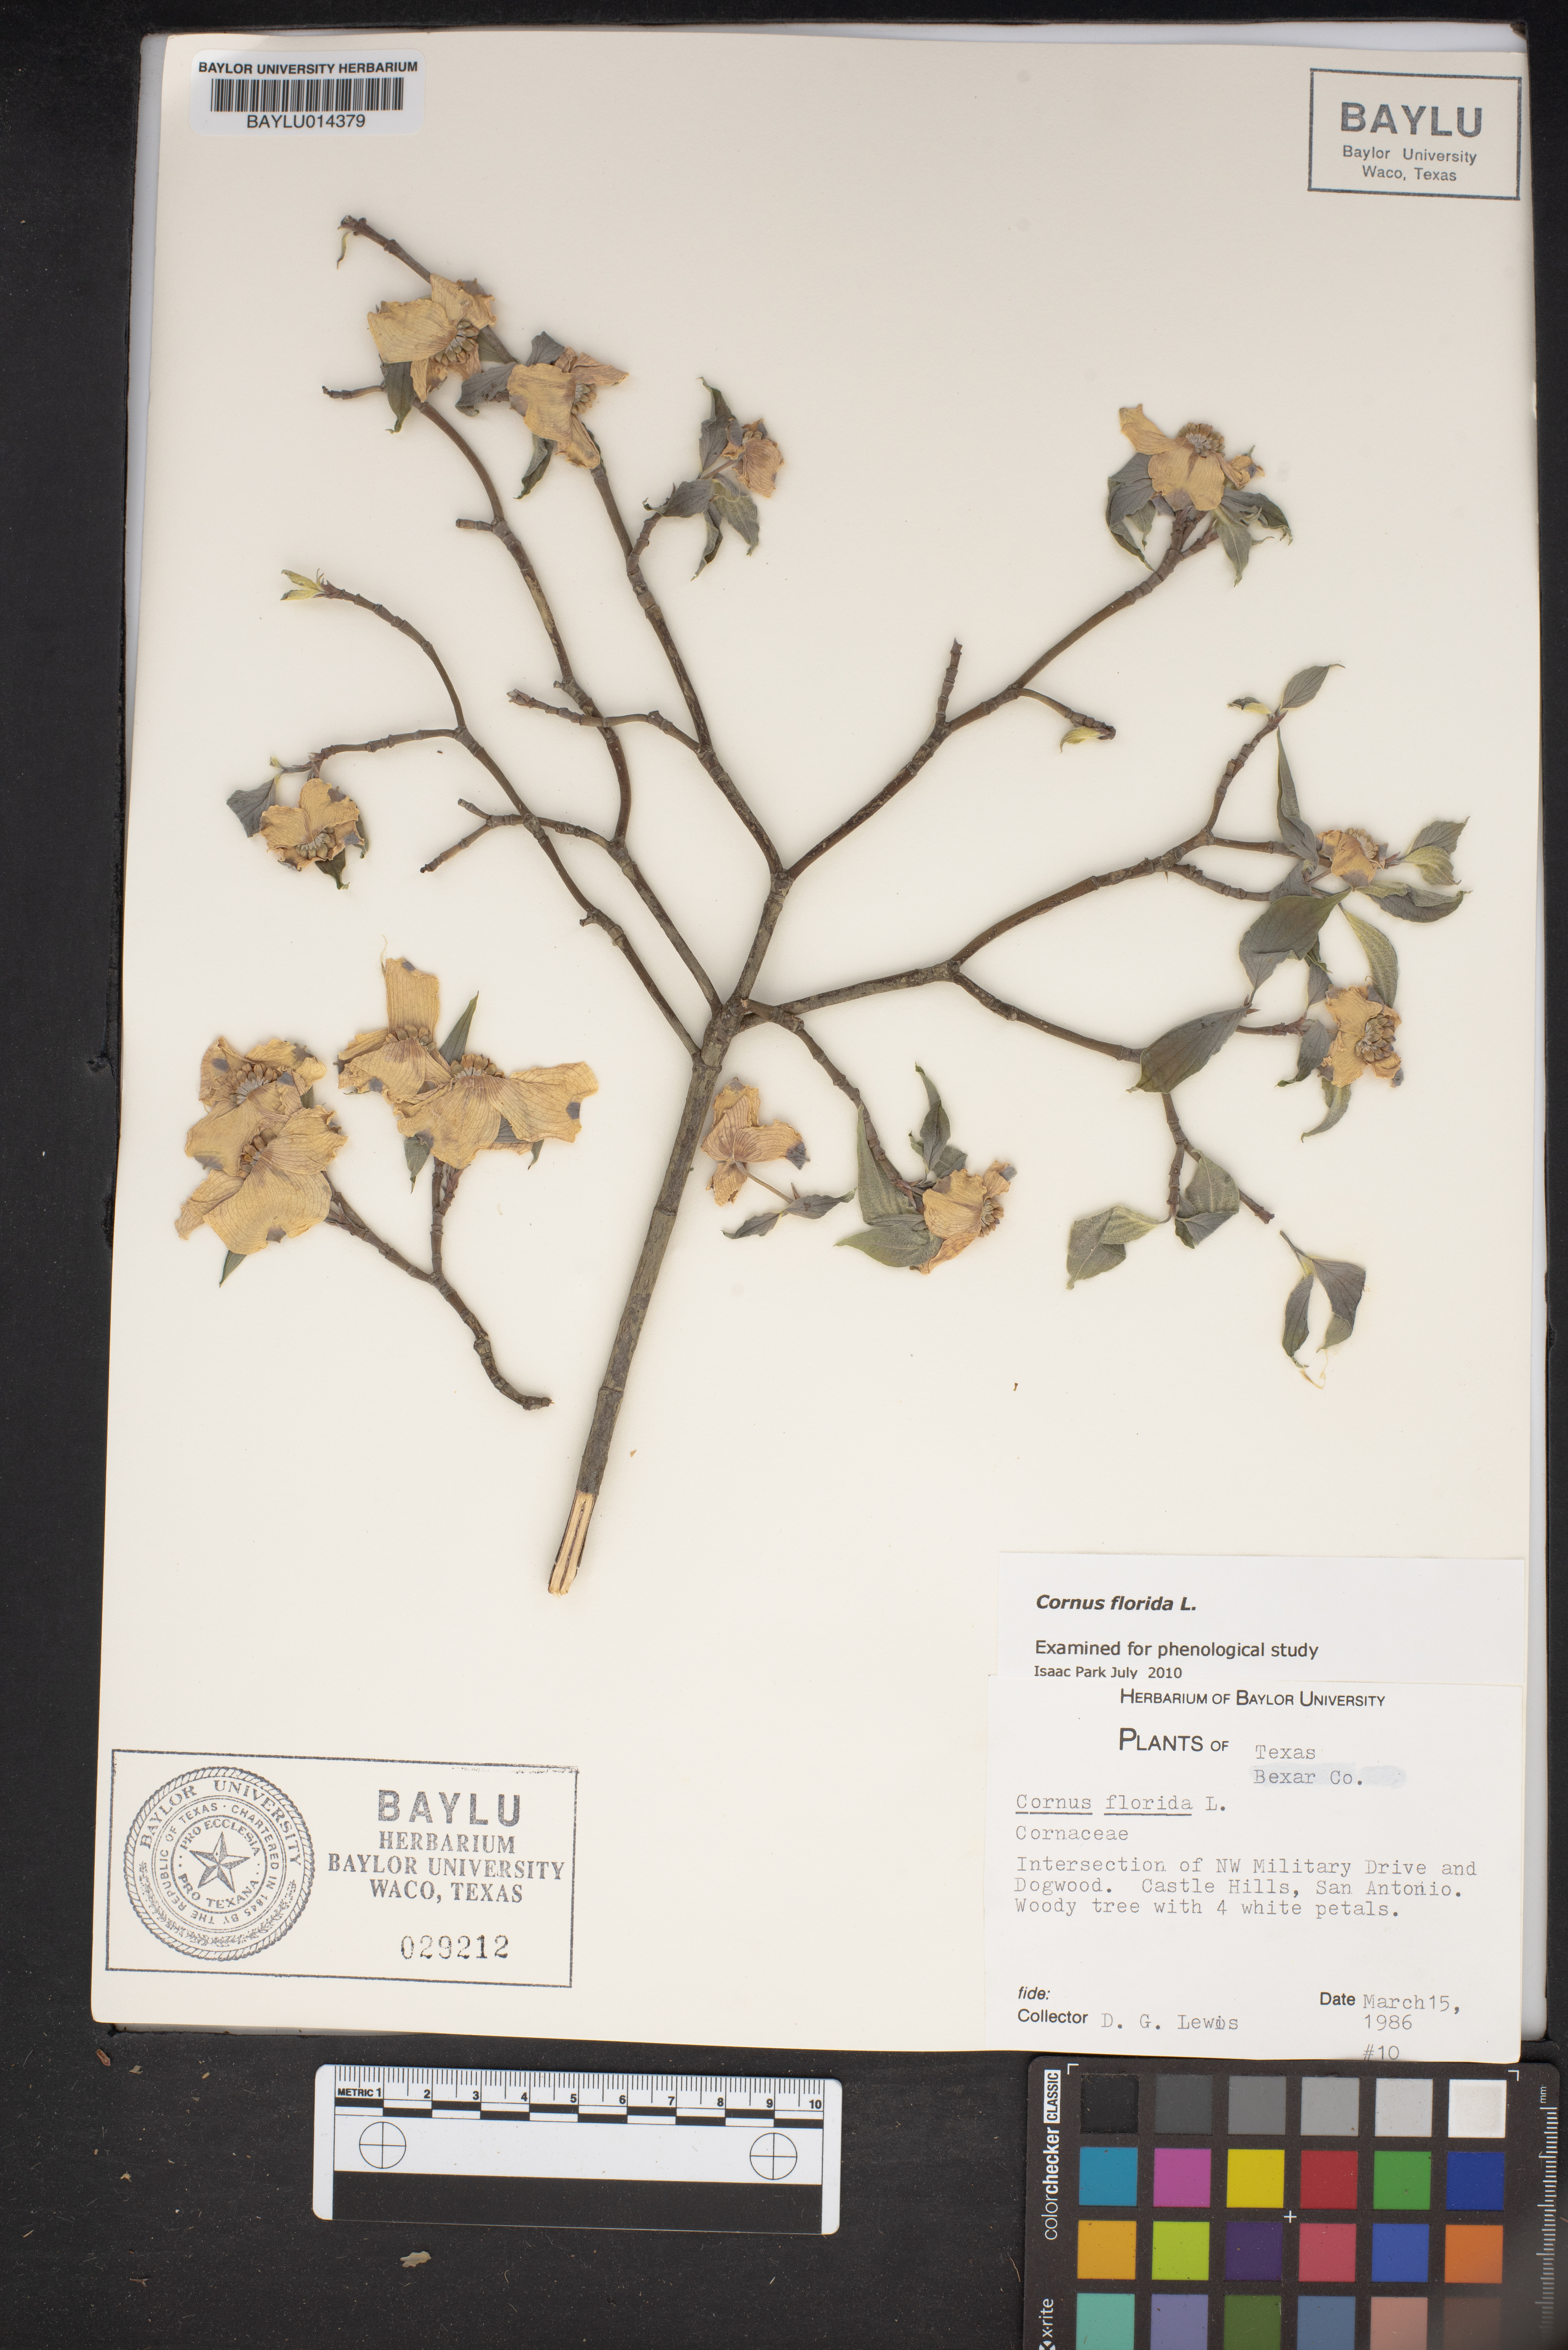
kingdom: Plantae
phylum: Tracheophyta
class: Magnoliopsida
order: Cornales
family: Cornaceae
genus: Cornus
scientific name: Cornus florida
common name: Flowering dogwood
